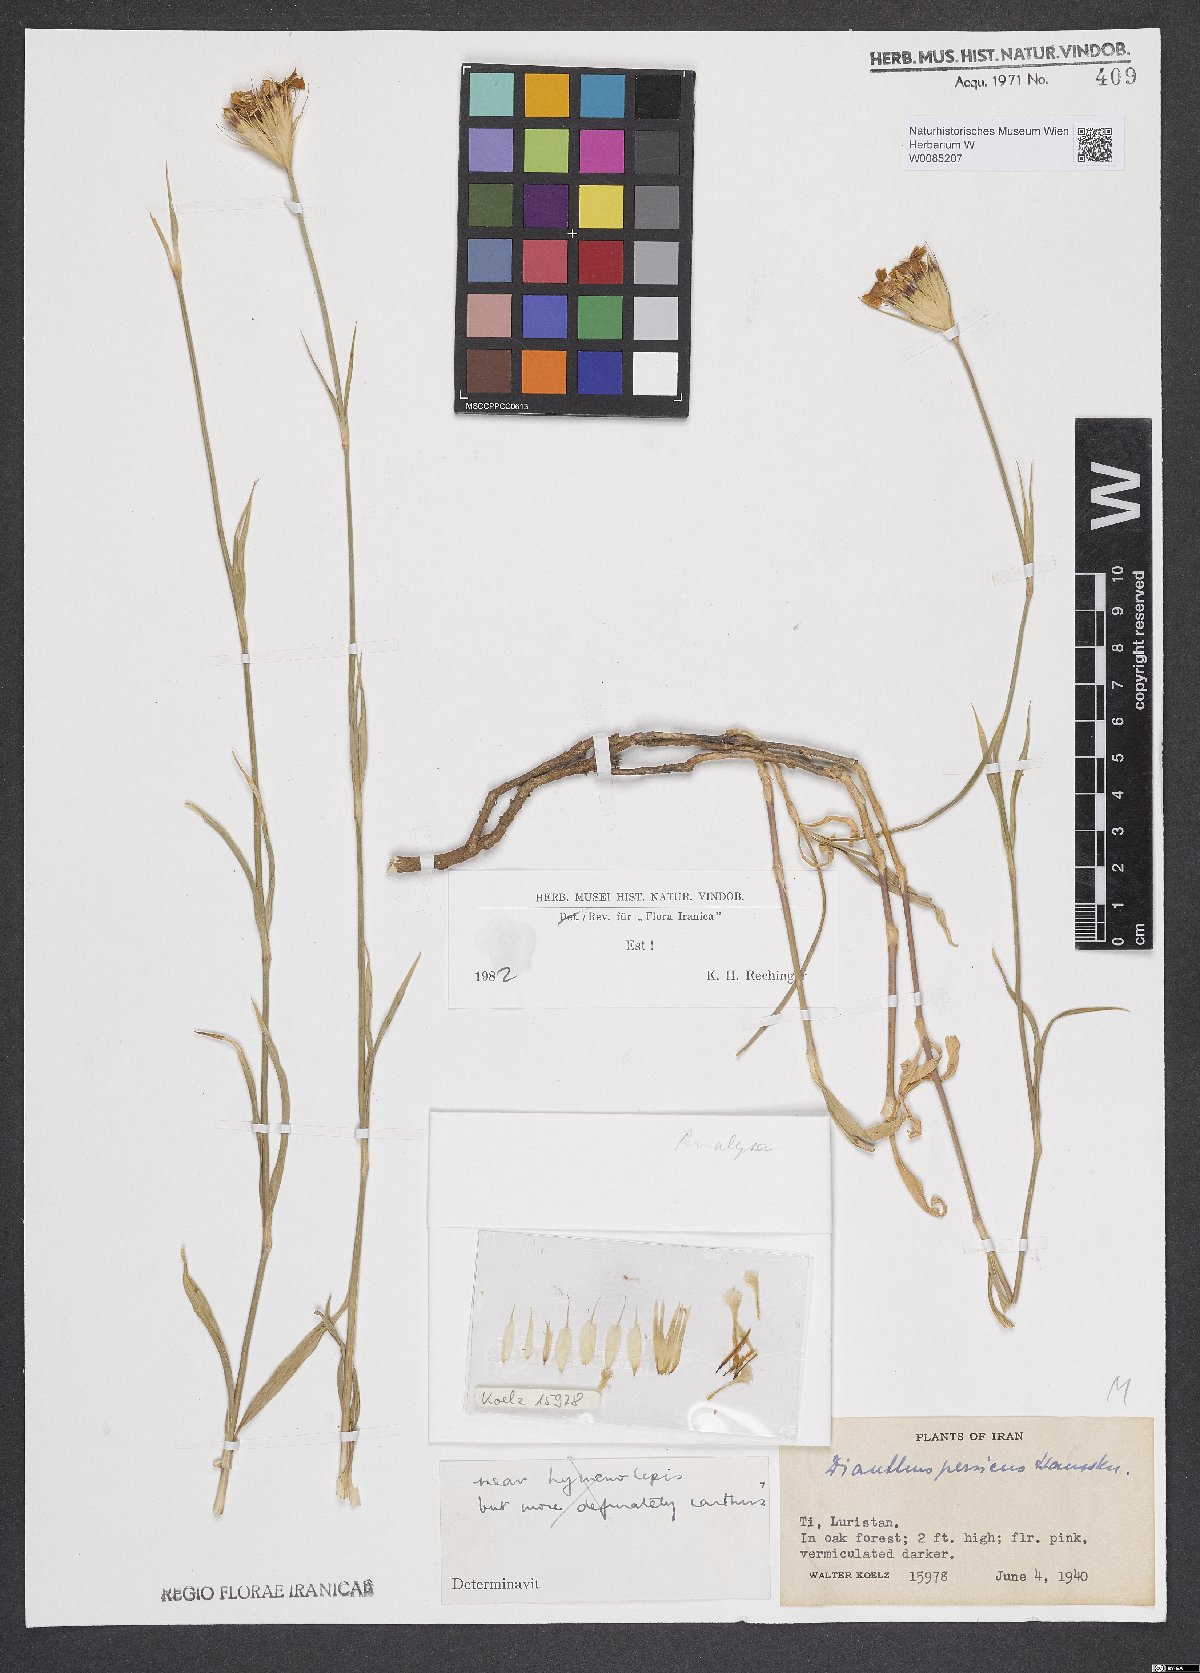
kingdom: Plantae
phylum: Tracheophyta
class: Magnoliopsida
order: Caryophyllales
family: Caryophyllaceae
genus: Dianthus
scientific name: Dianthus persicus
